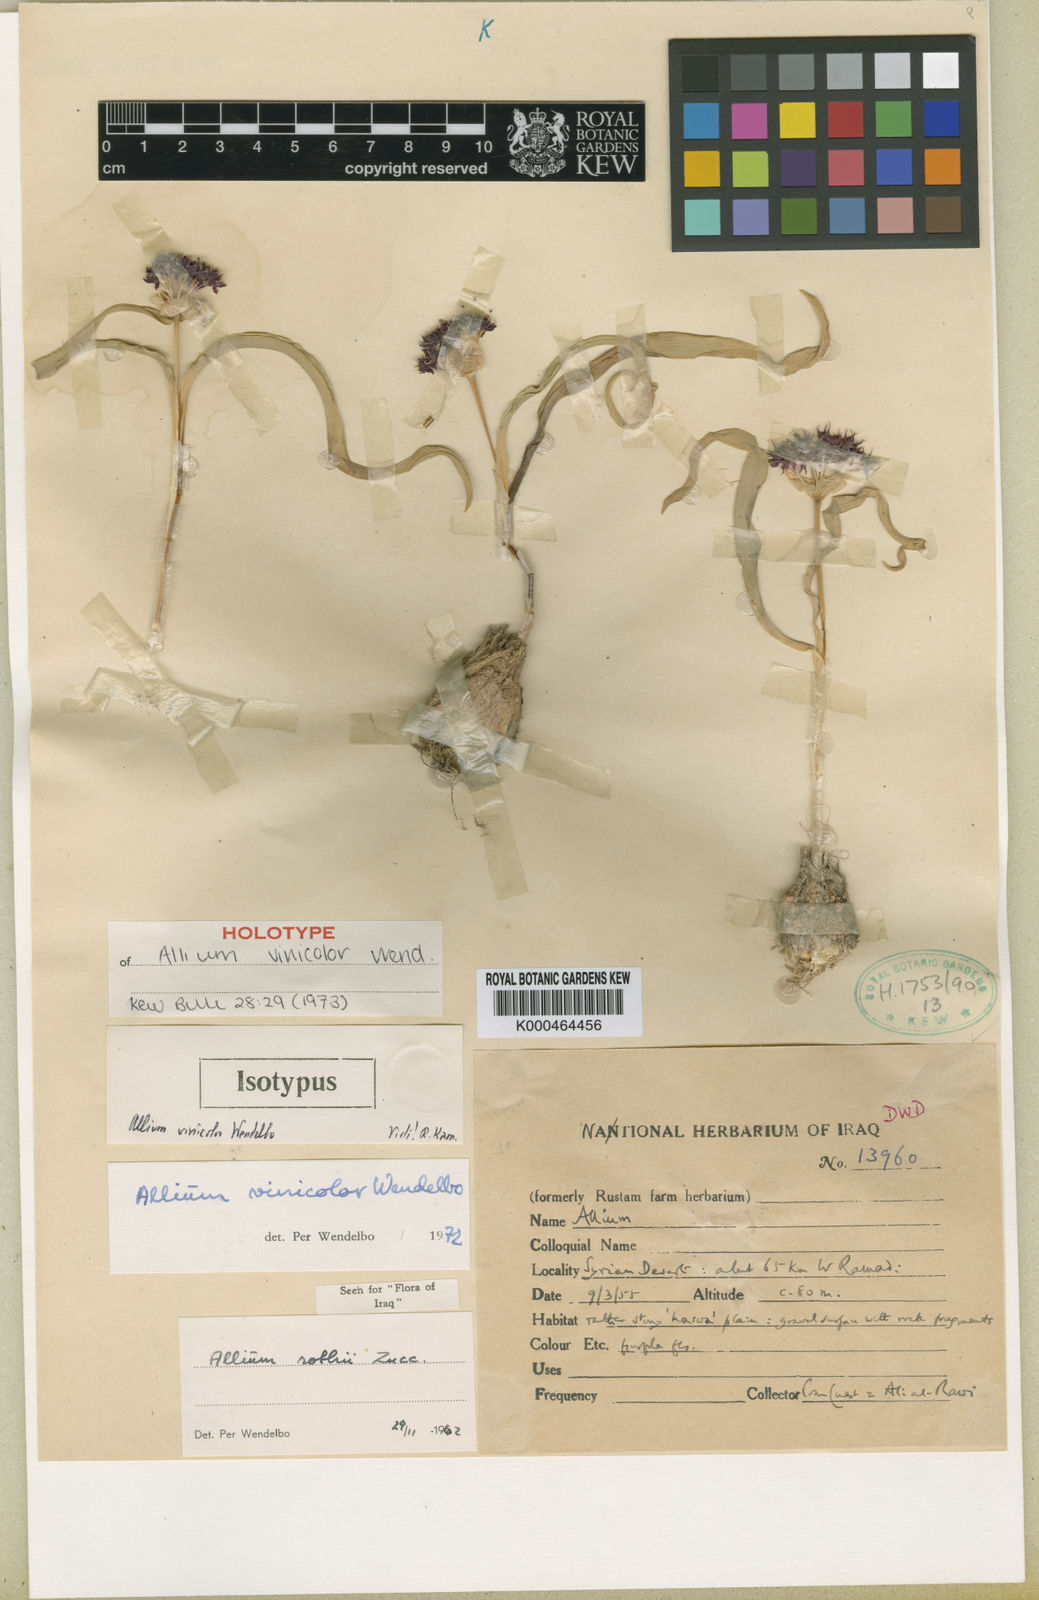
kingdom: Plantae
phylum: Tracheophyta
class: Liliopsida
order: Asparagales
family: Amaryllidaceae
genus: Allium
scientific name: Allium vinicolor
